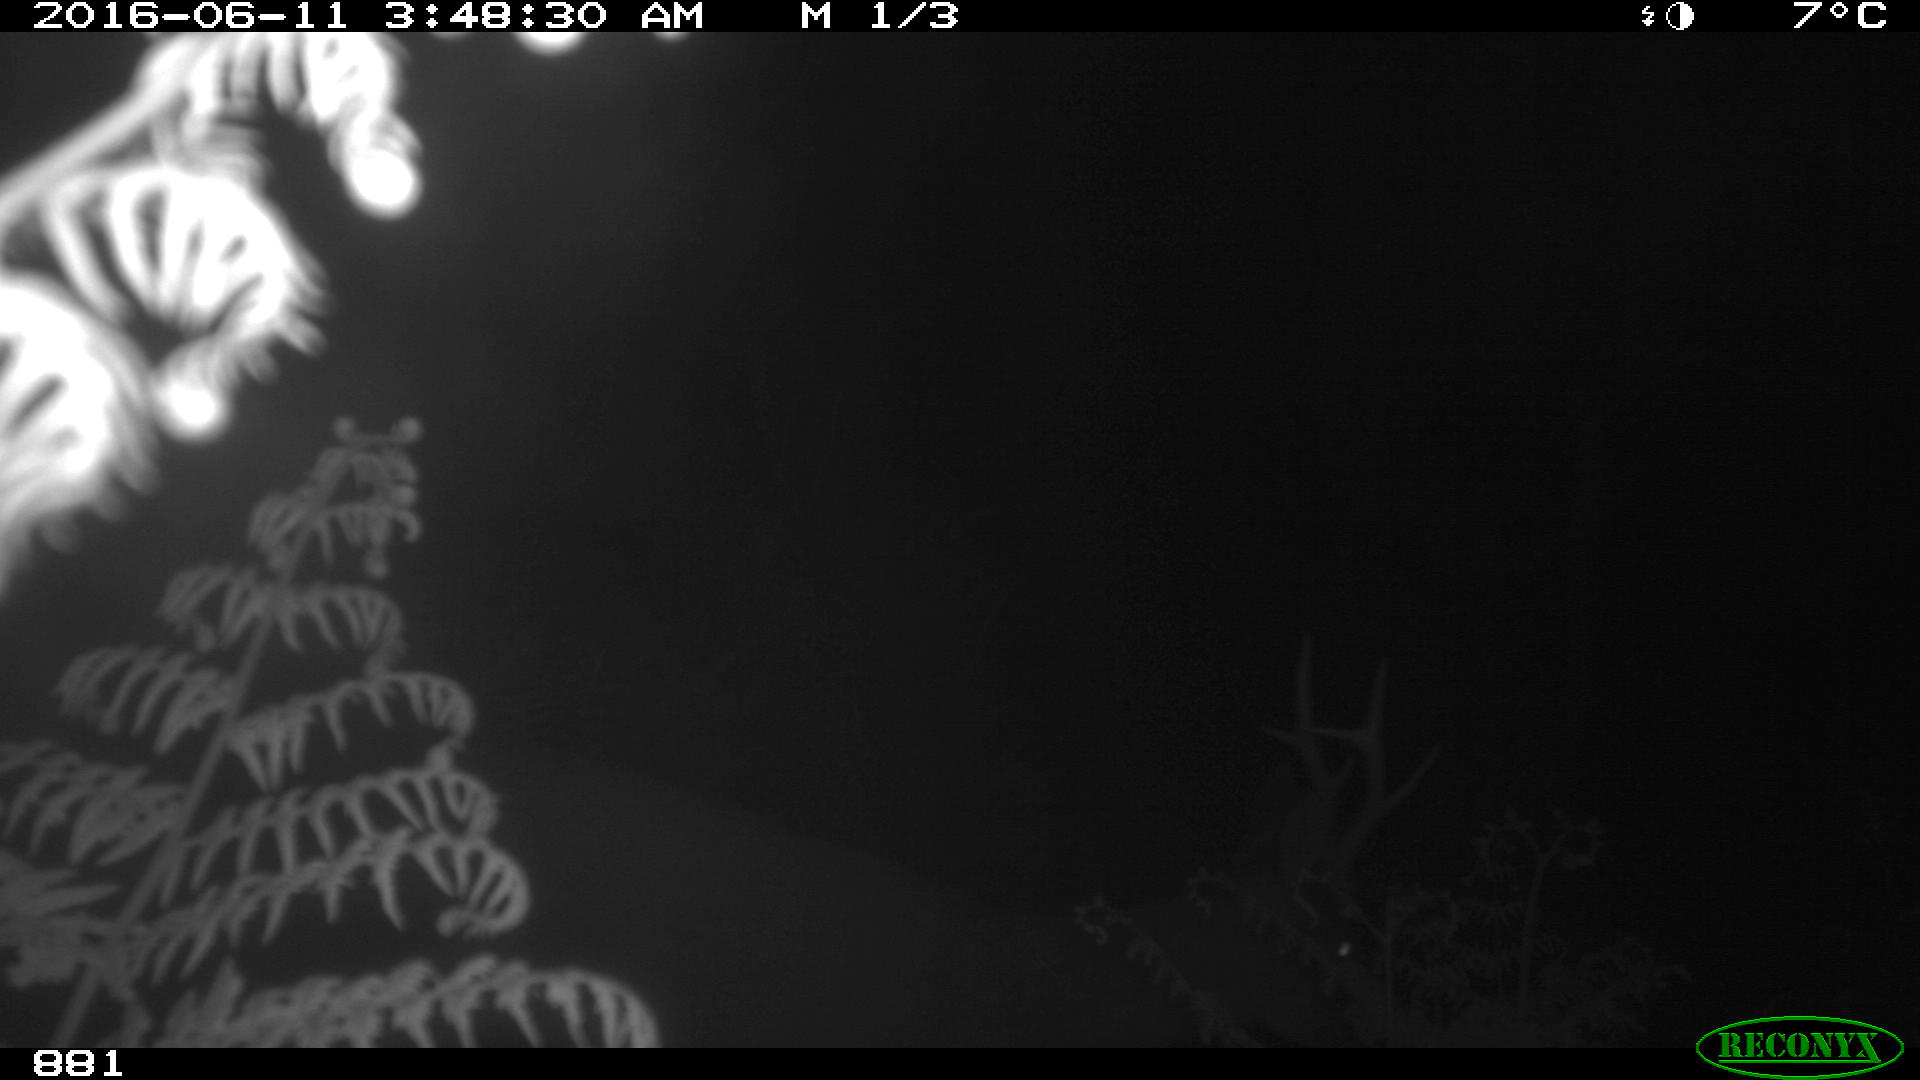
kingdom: Animalia
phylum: Chordata
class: Mammalia
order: Artiodactyla
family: Cervidae
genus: Capreolus
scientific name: Capreolus capreolus
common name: Western roe deer
